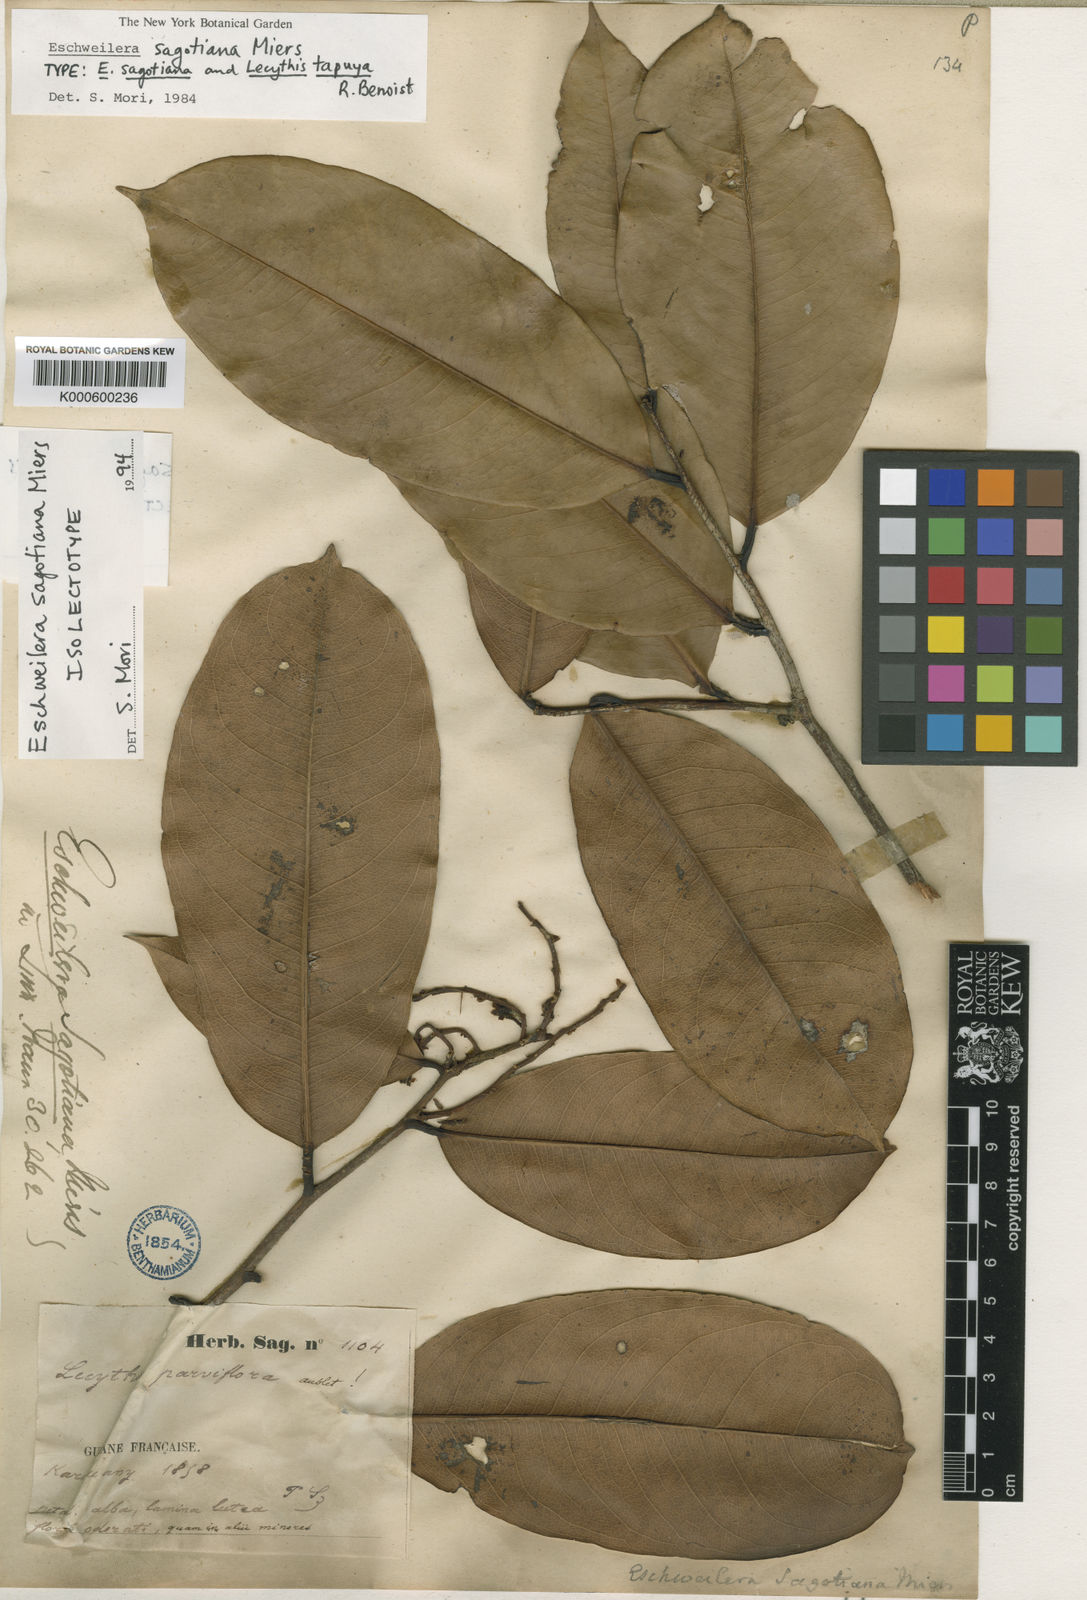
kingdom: Plantae
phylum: Tracheophyta
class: Magnoliopsida
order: Ericales
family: Lecythidaceae
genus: Eschweilera
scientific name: Eschweilera sagotiana
